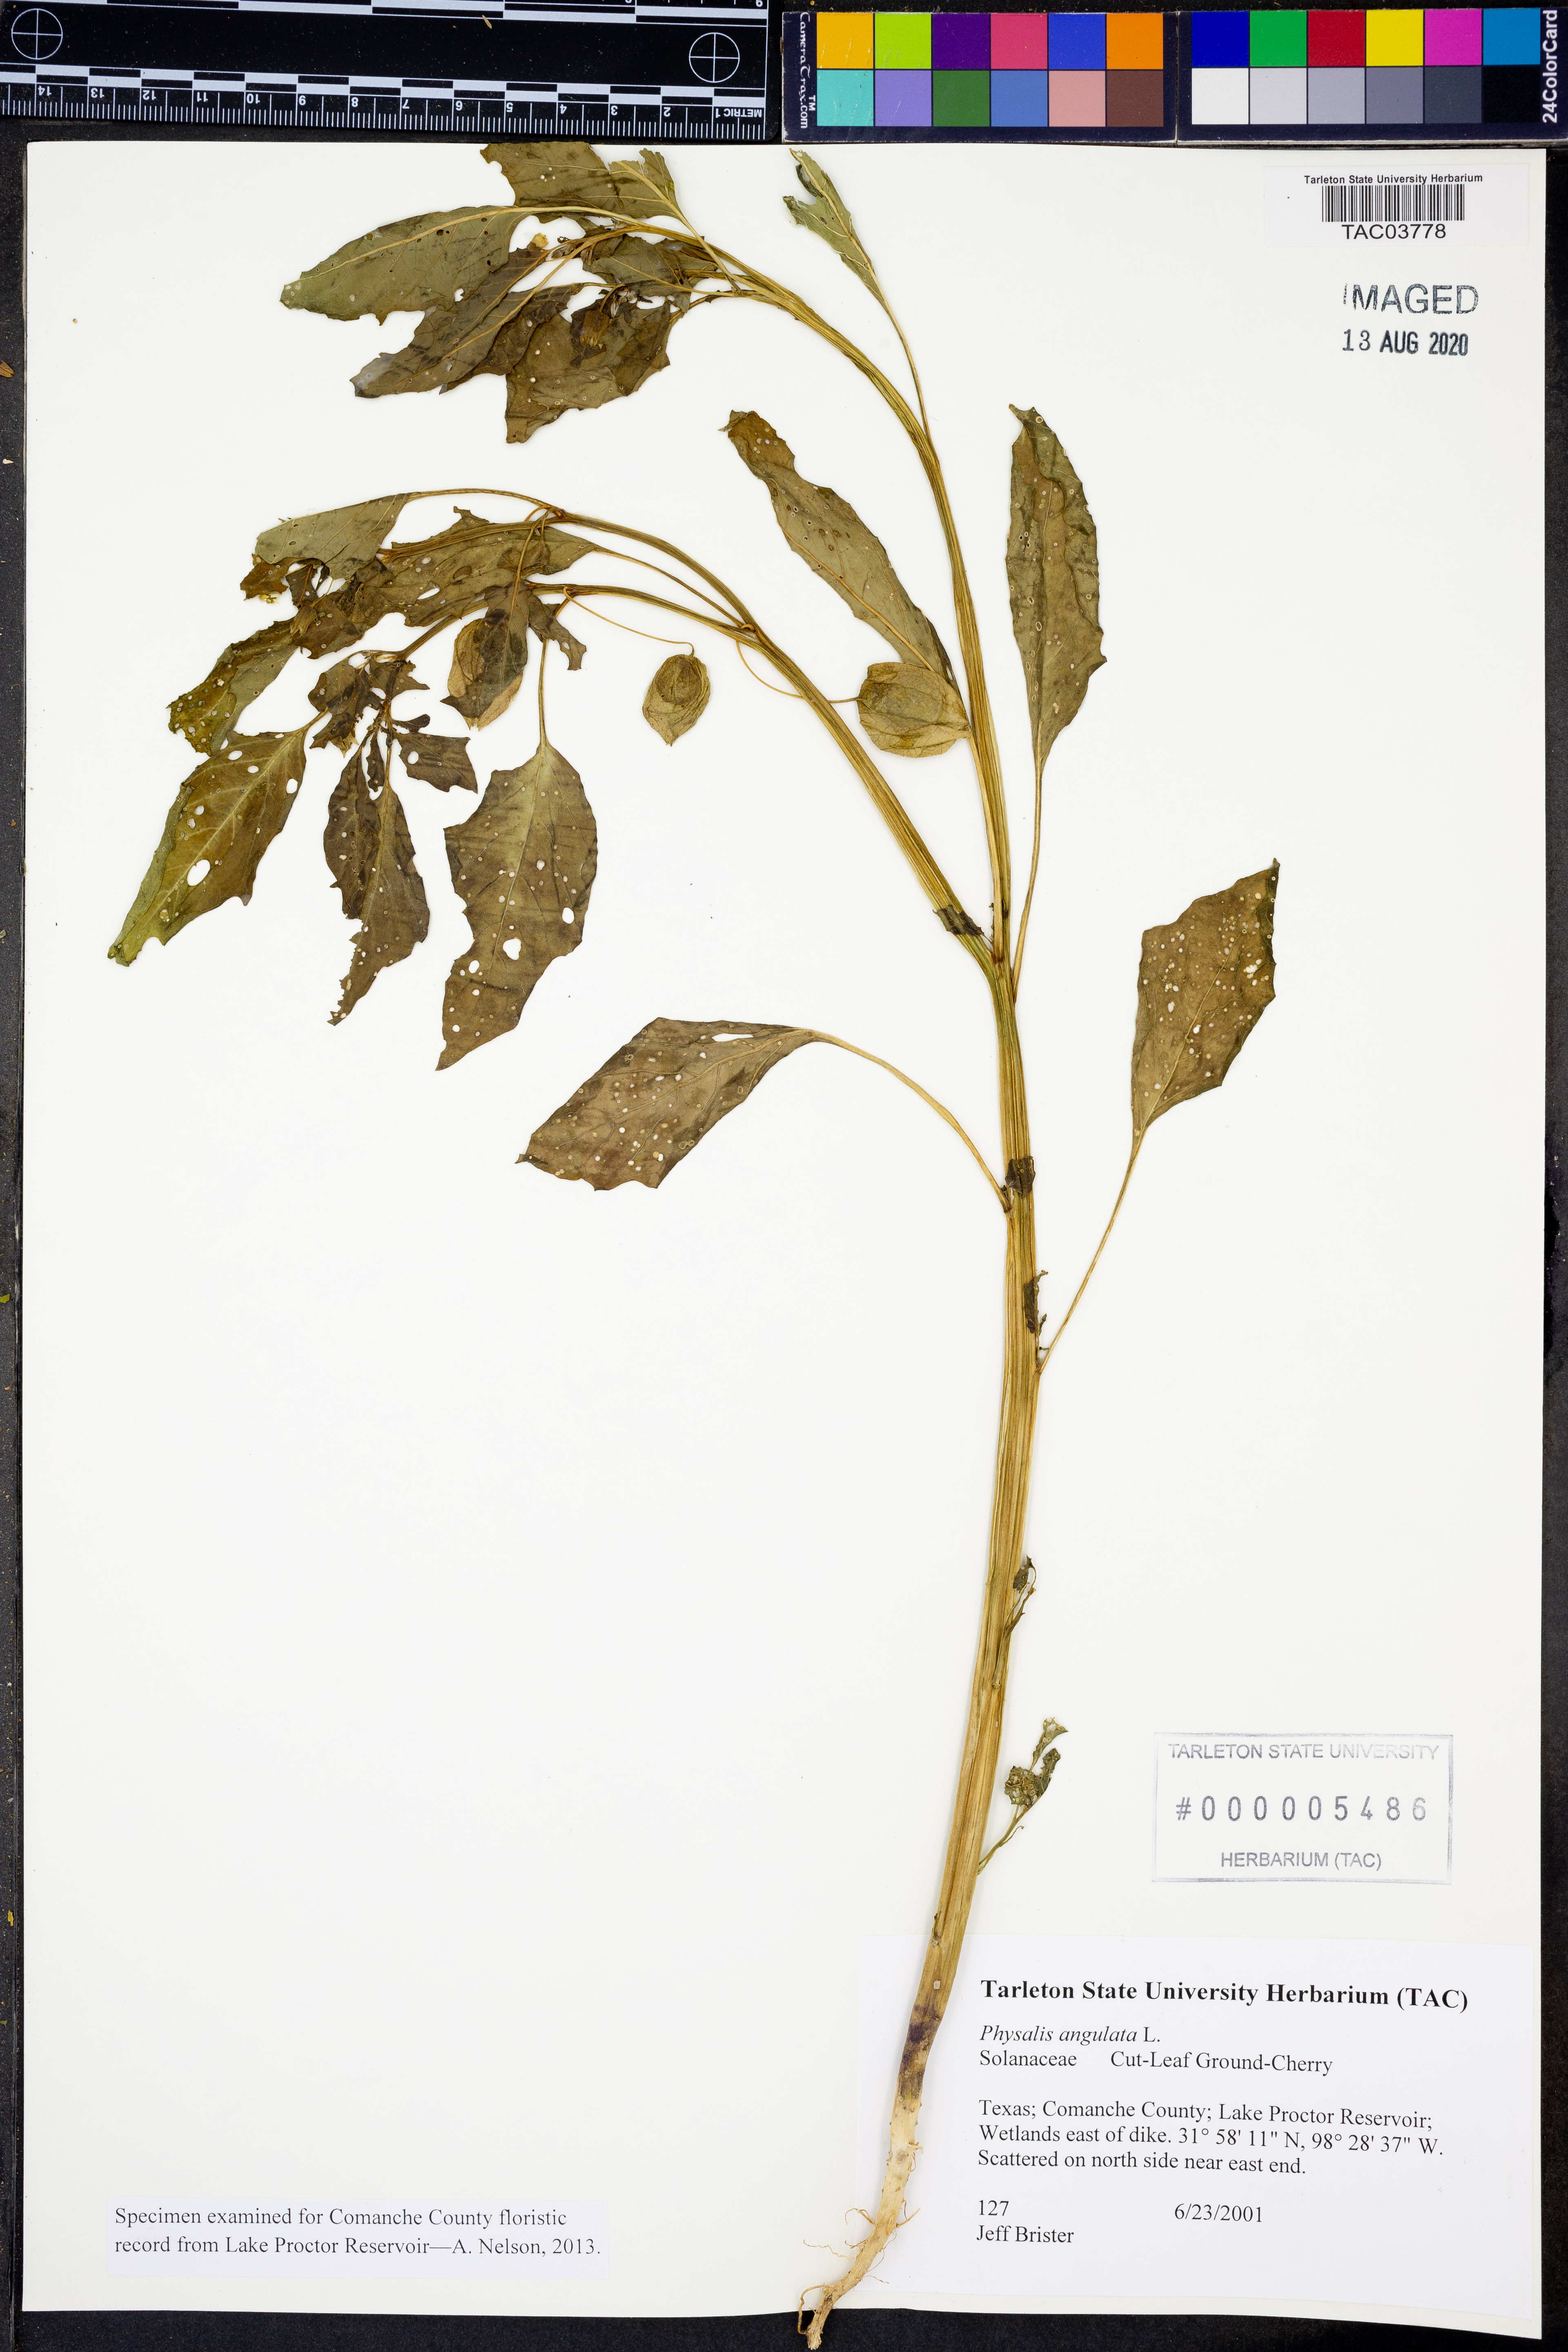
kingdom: Plantae
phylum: Tracheophyta
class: Magnoliopsida
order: Solanales
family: Solanaceae
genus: Physalis
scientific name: Physalis angulata
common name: Angular winter-cherry
